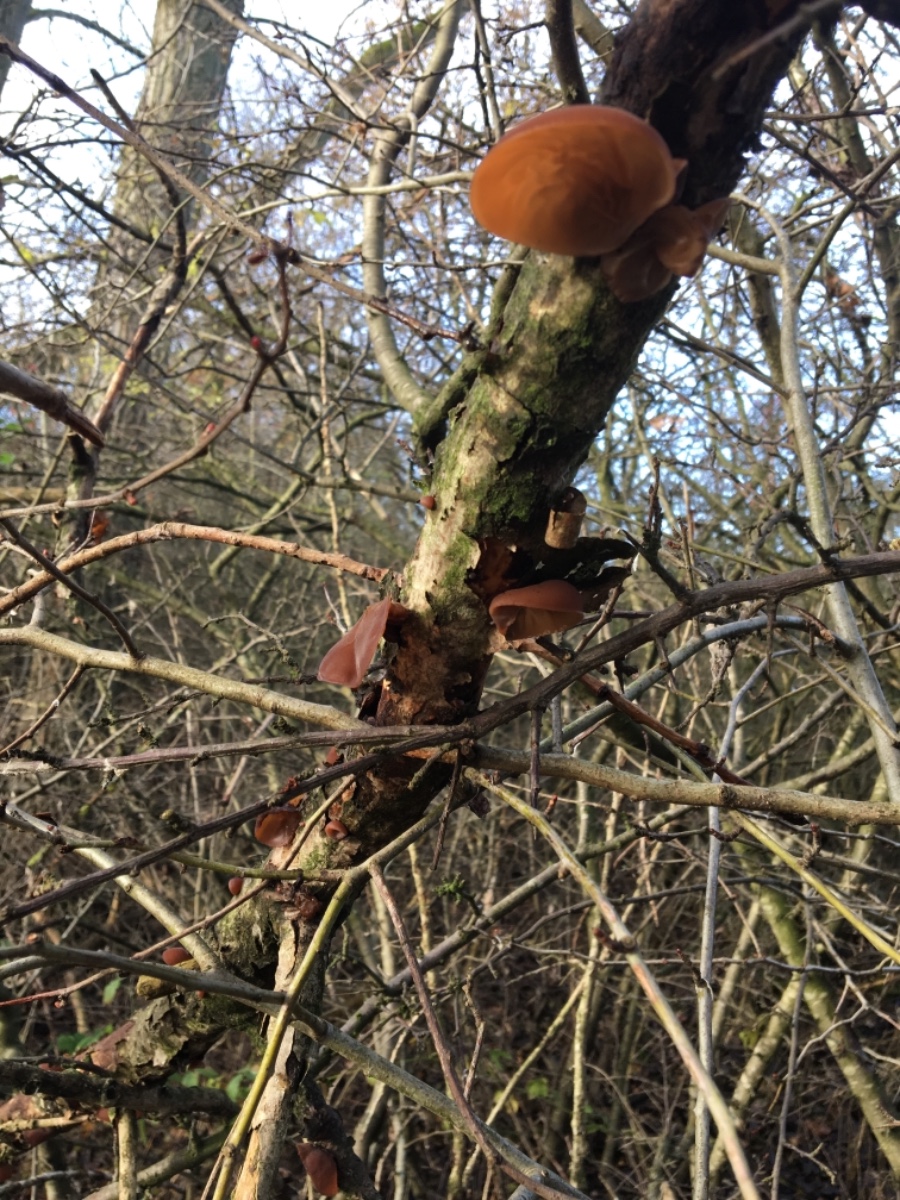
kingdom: Fungi
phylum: Basidiomycota
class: Agaricomycetes
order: Auriculariales
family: Auriculariaceae
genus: Auricularia
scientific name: Auricularia auricula-judae
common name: almindelig judasøre
